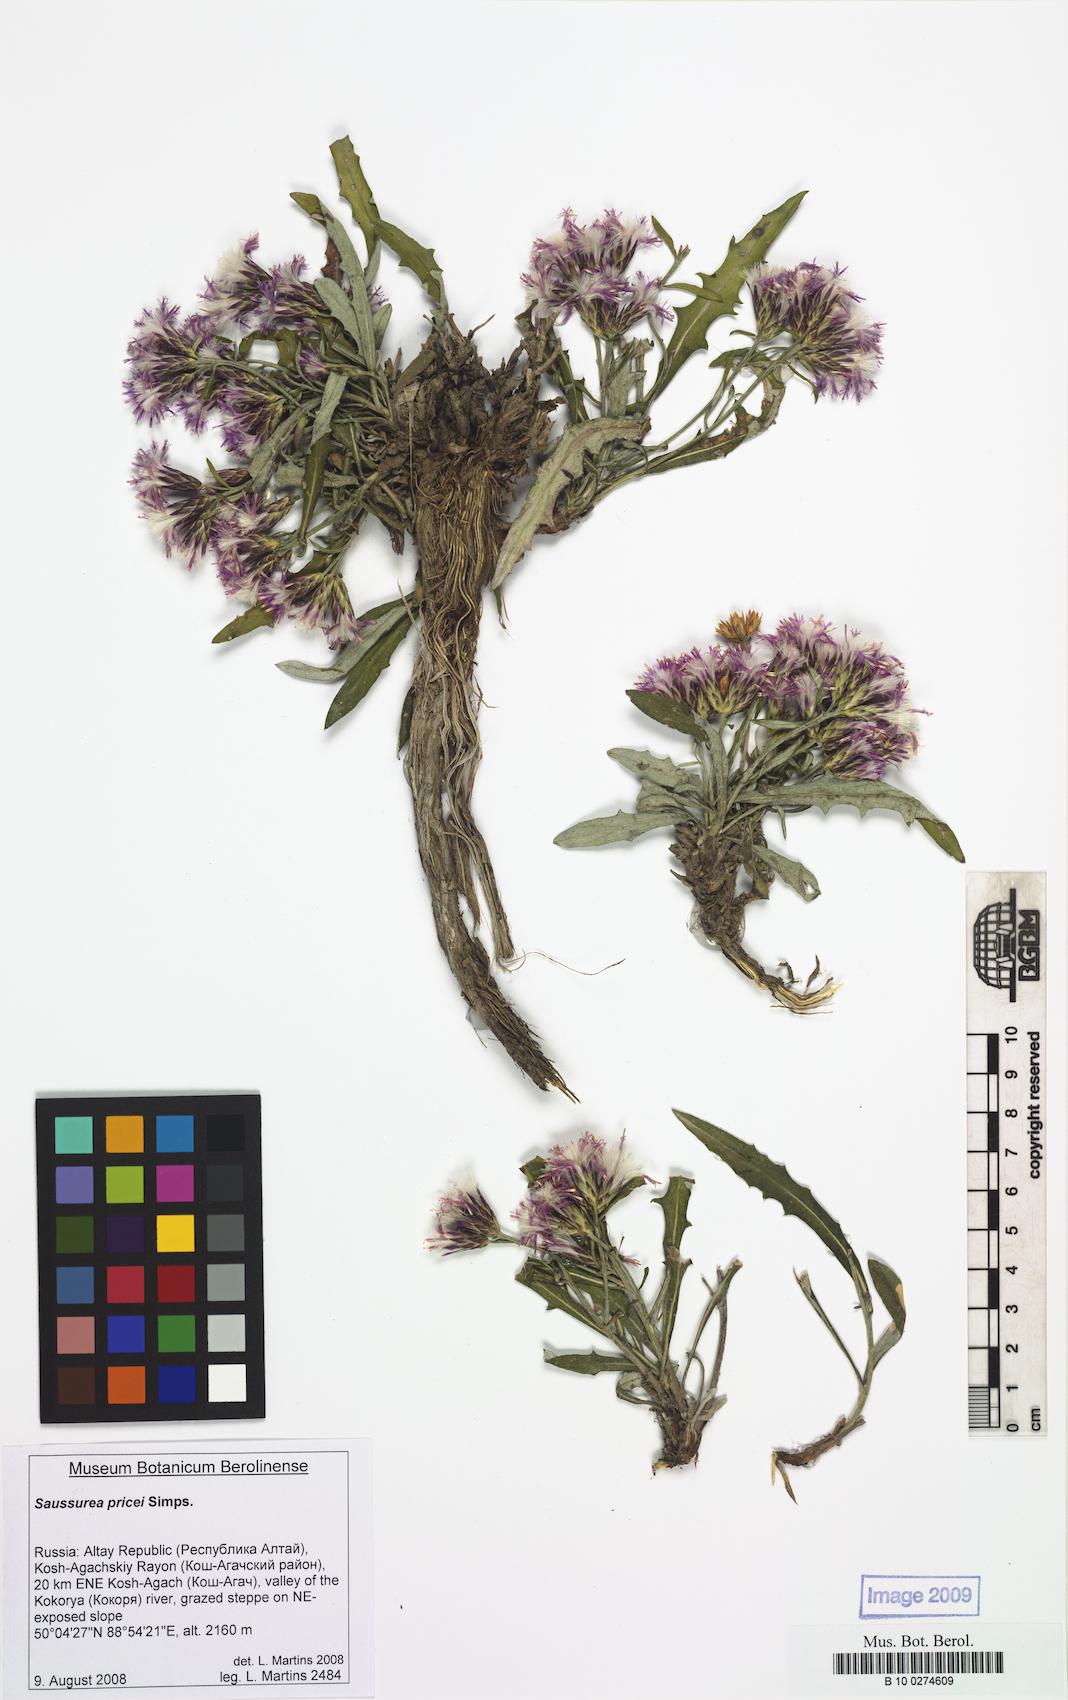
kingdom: Plantae
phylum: Tracheophyta
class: Magnoliopsida
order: Asterales
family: Asteraceae
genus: Saussurea
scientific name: Saussurea pricei
